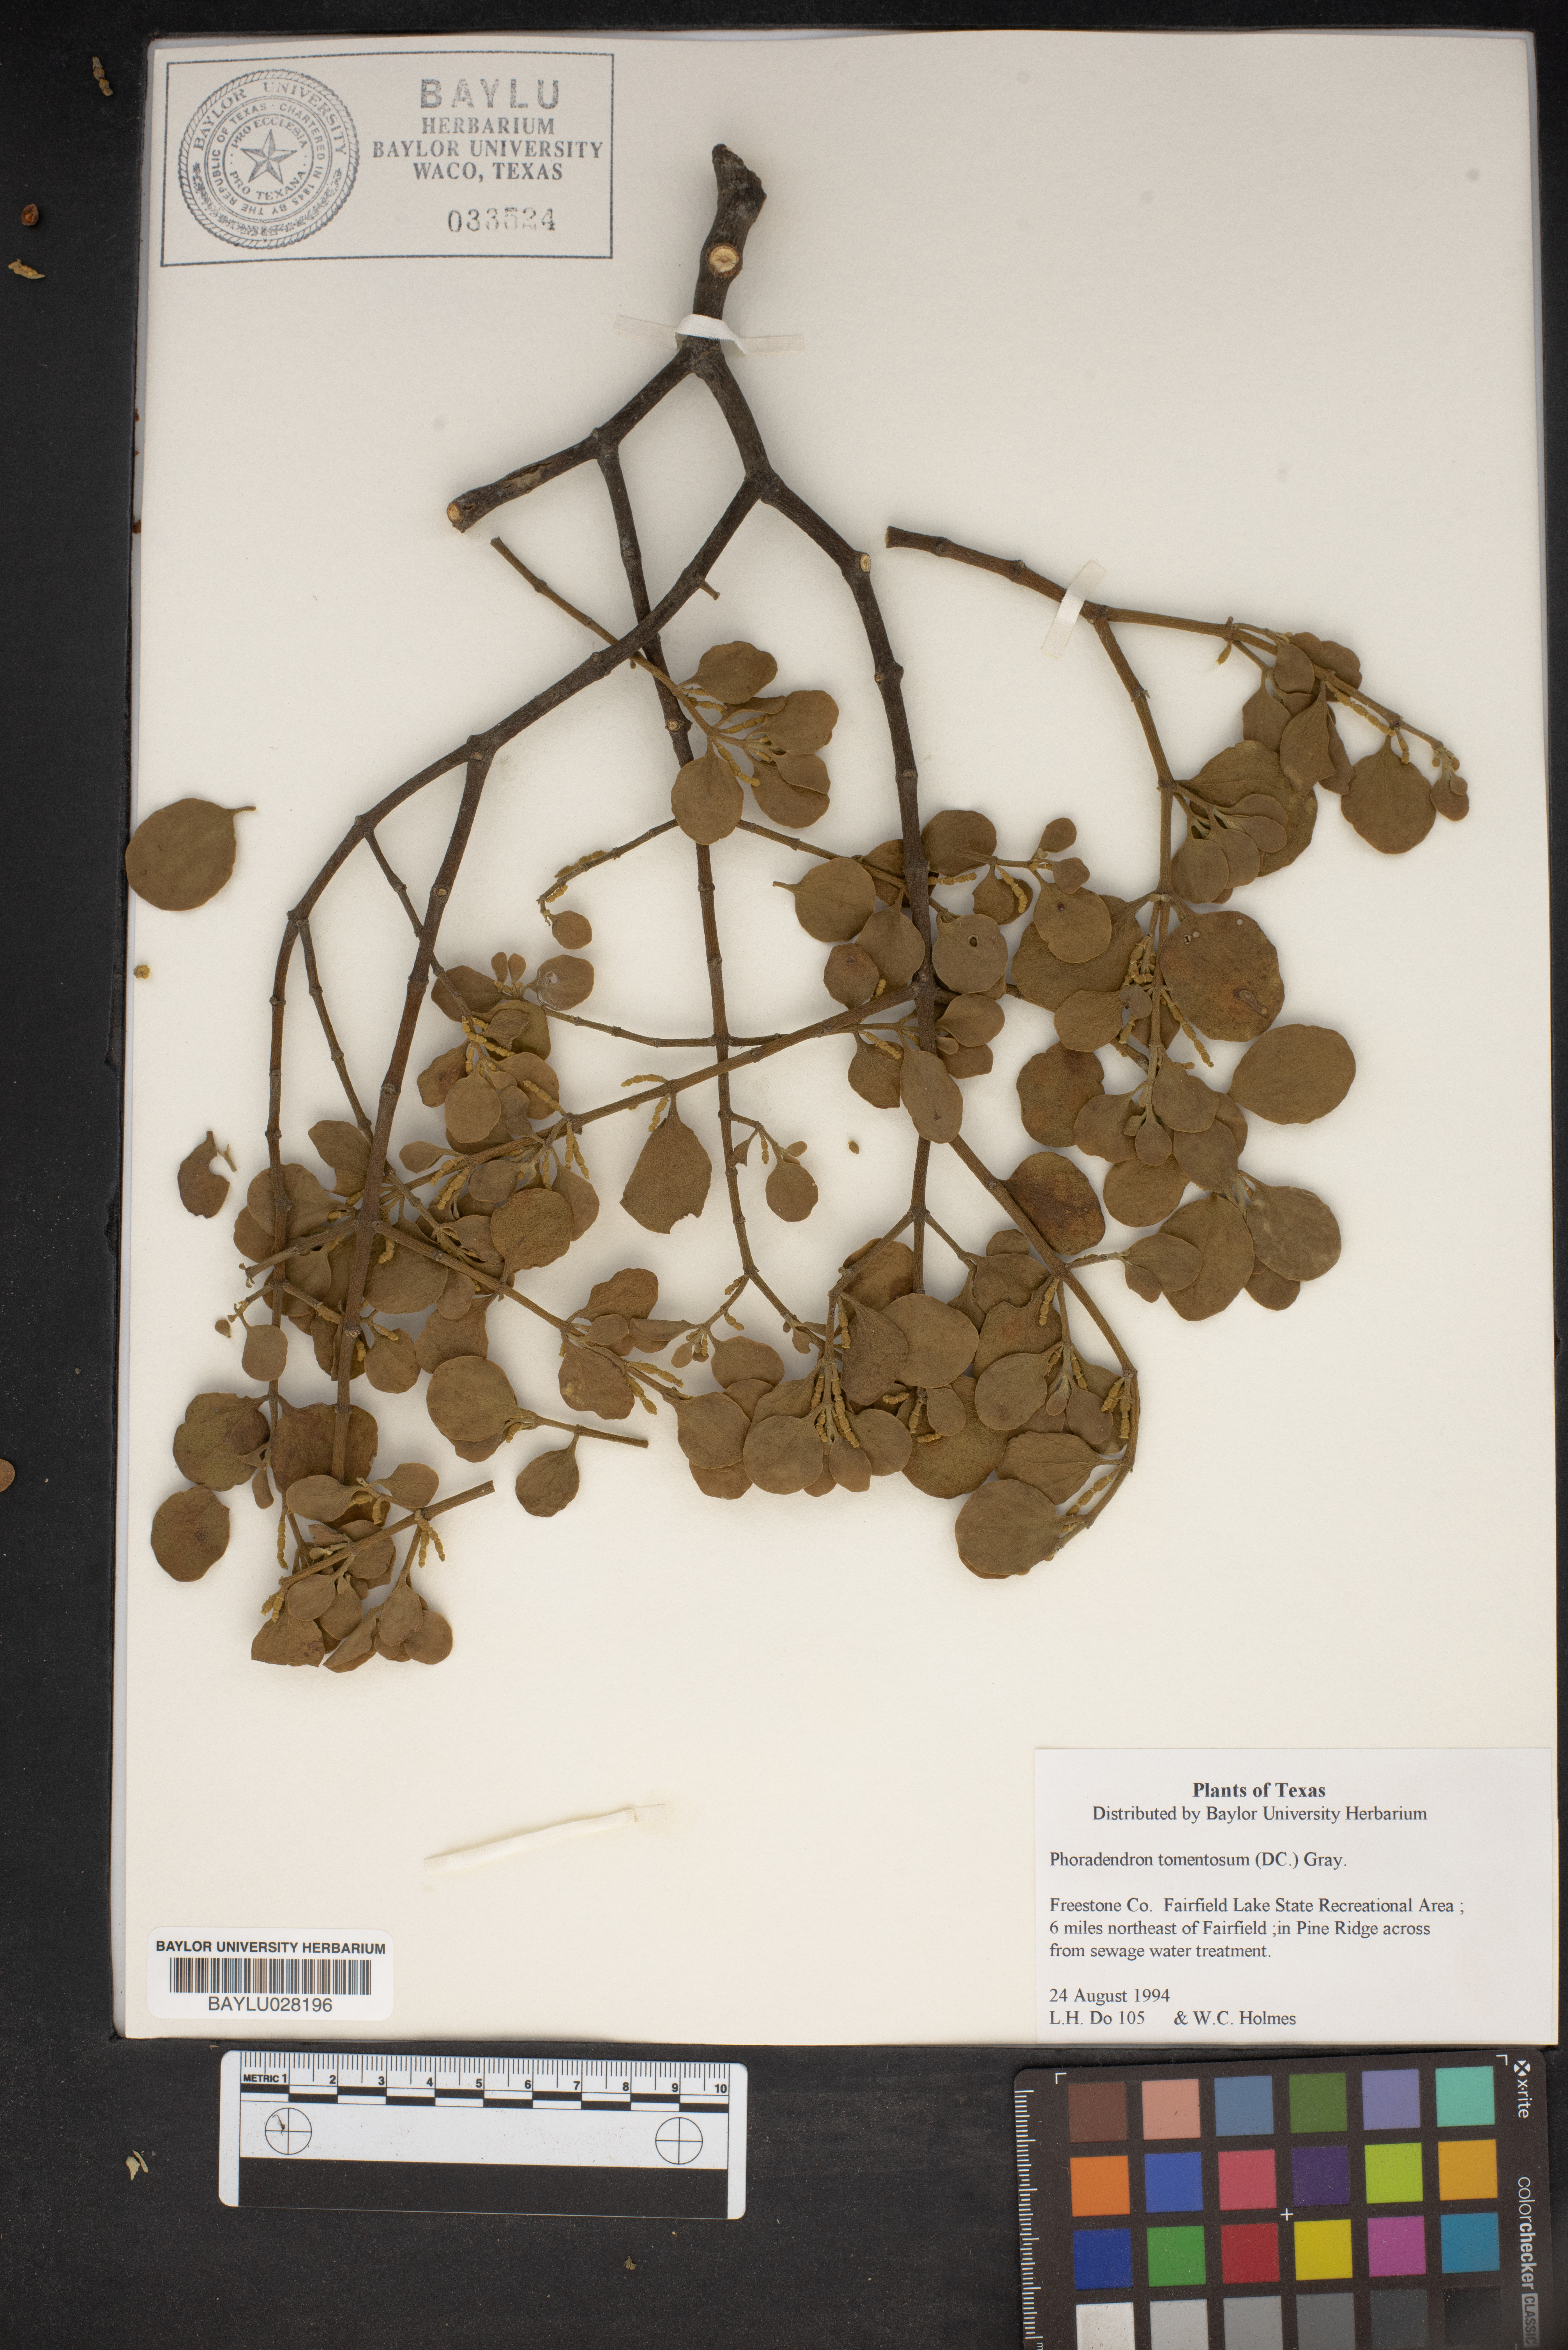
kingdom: Plantae
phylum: Tracheophyta
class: Magnoliopsida
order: Santalales
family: Viscaceae
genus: Phoradendron
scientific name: Phoradendron leucarpum
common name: Pacific mistletoe
